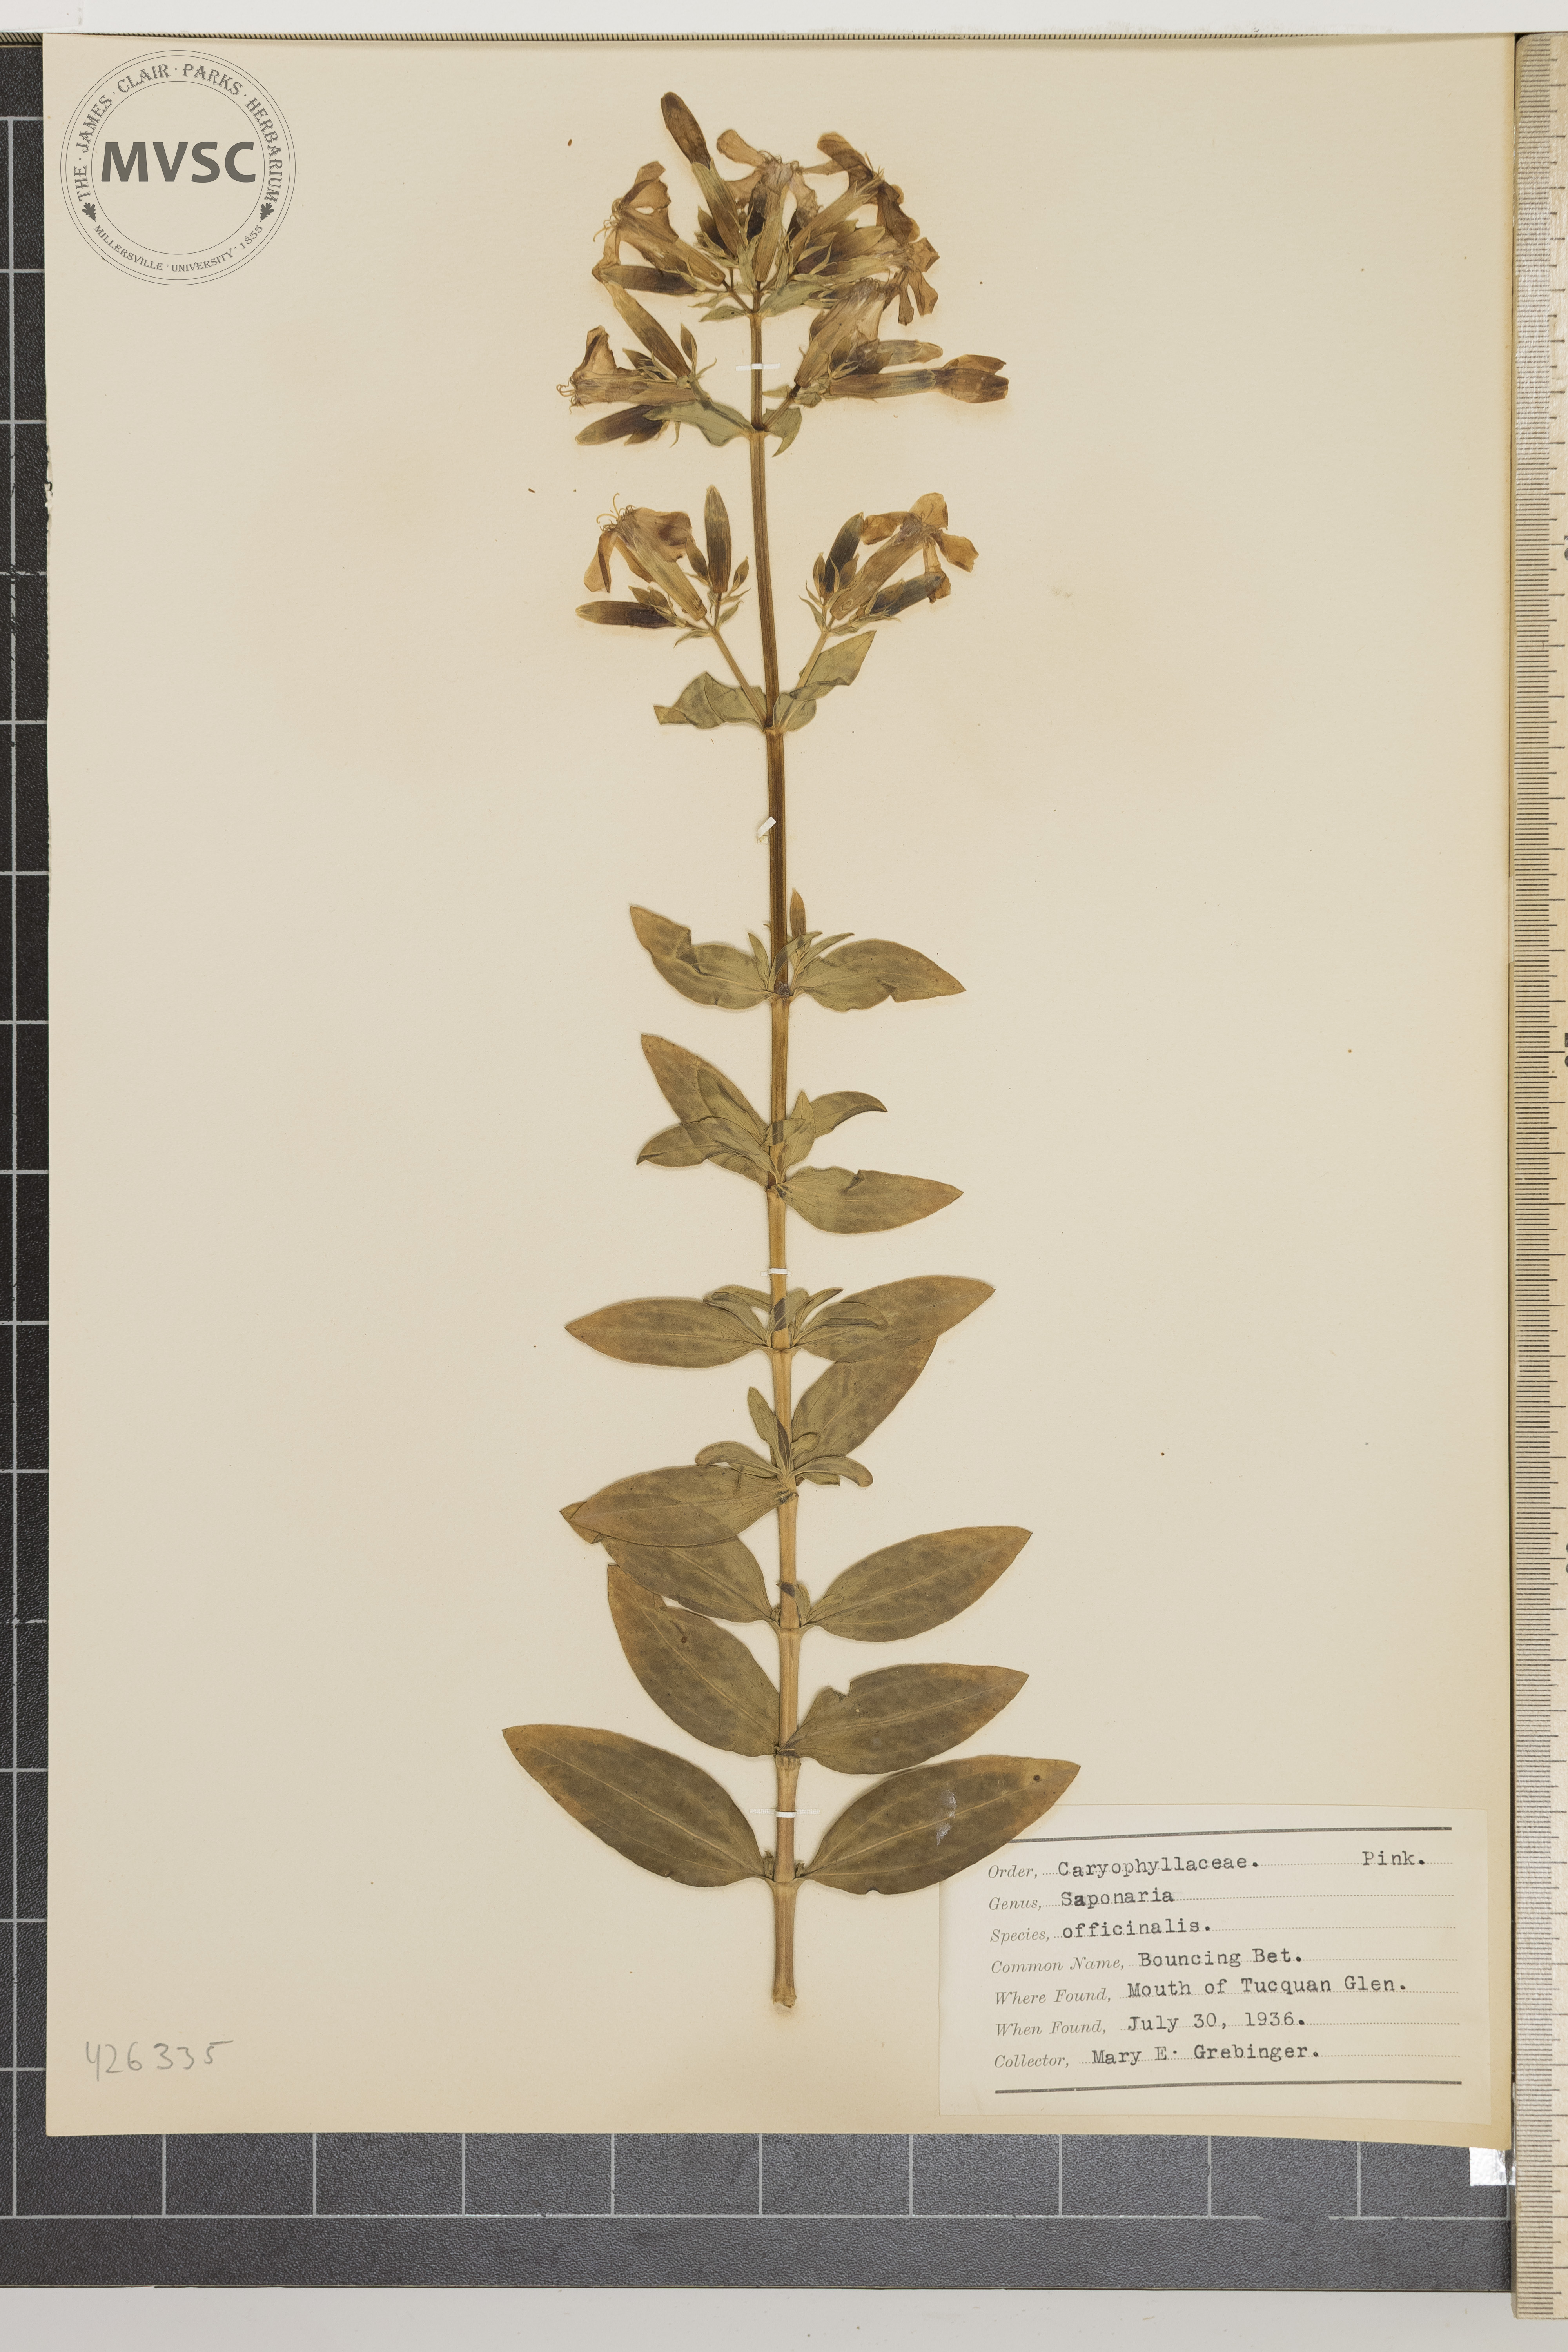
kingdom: Plantae
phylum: Tracheophyta
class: Magnoliopsida
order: Caryophyllales
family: Caryophyllaceae
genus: Silene
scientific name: Silene caroliniana
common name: Wild Pink
